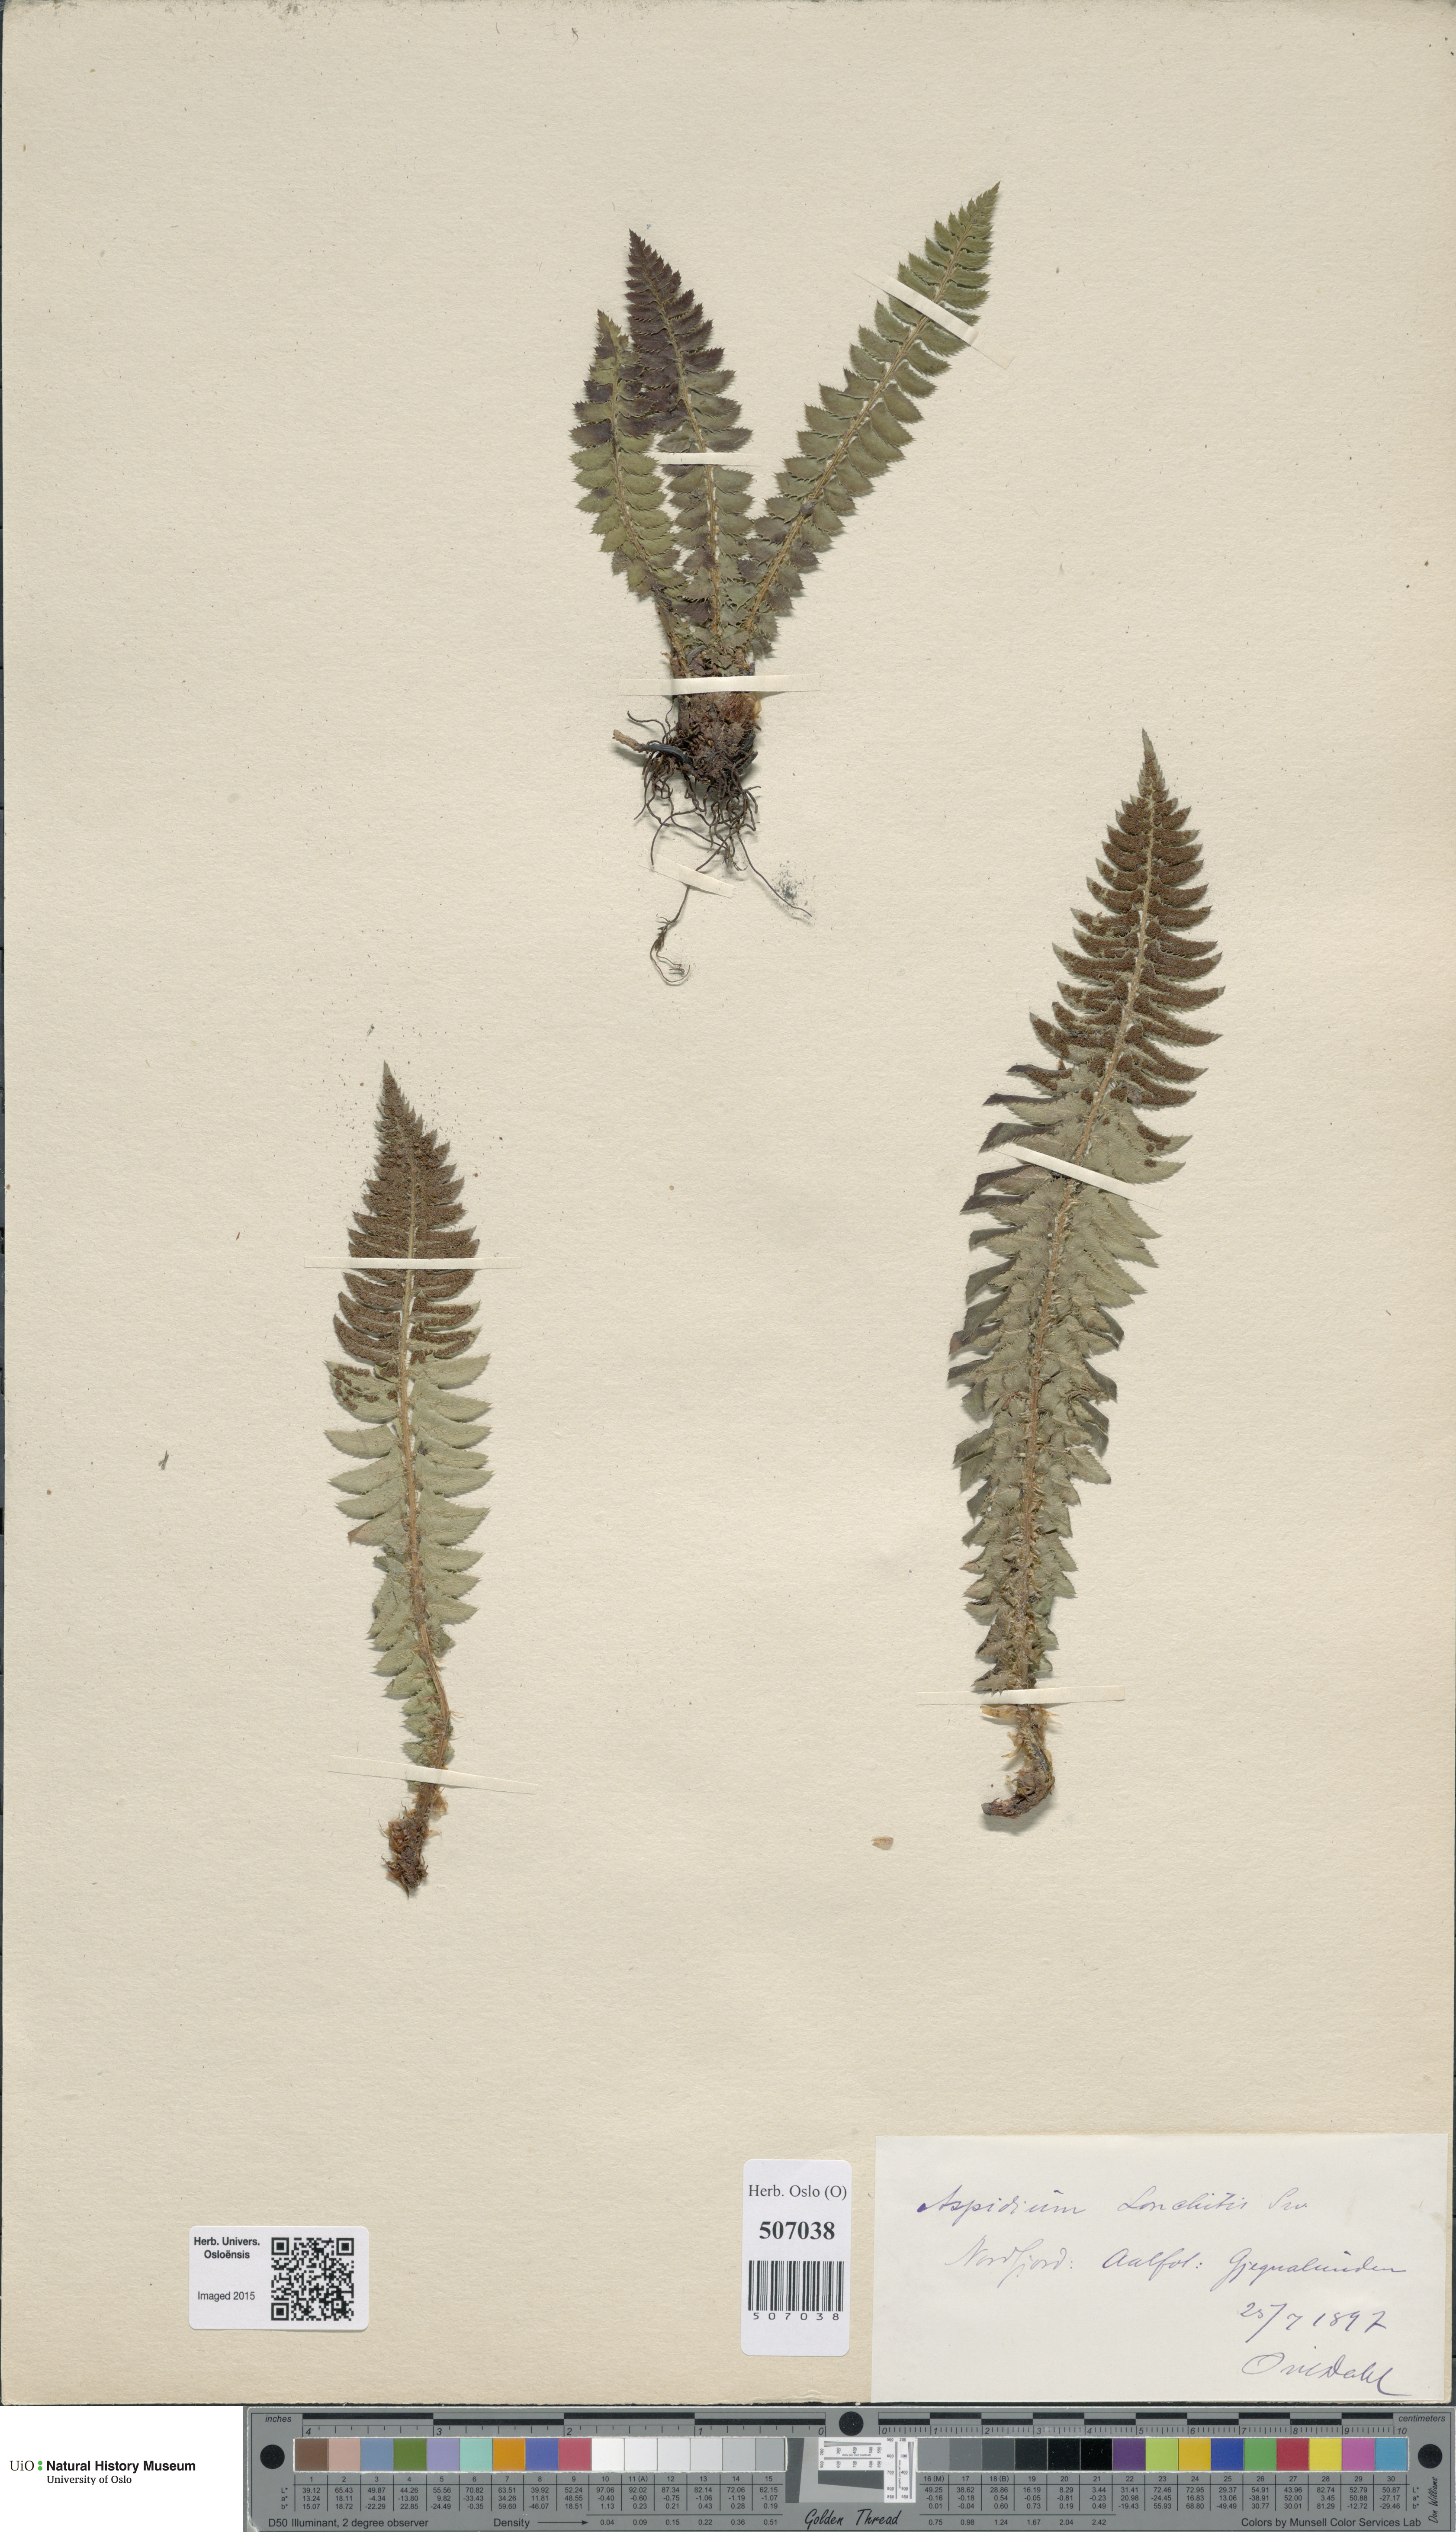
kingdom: Plantae
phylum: Tracheophyta
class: Polypodiopsida
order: Polypodiales
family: Dryopteridaceae
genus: Polystichum
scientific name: Polystichum lonchitis
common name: Holly fern
